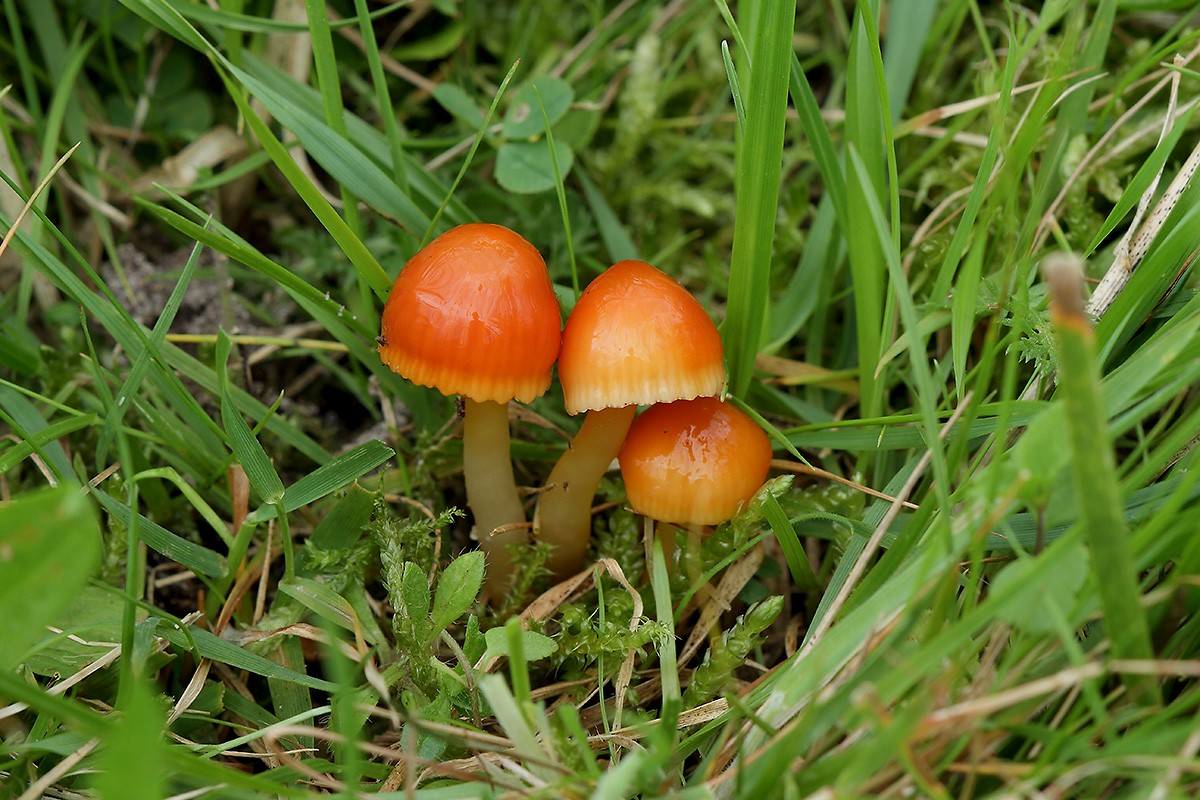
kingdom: Fungi
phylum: Basidiomycota
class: Agaricomycetes
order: Agaricales
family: Hygrophoraceae
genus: Gliophorus
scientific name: Gliophorus europerplexus
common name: Butterscotch waxcap
